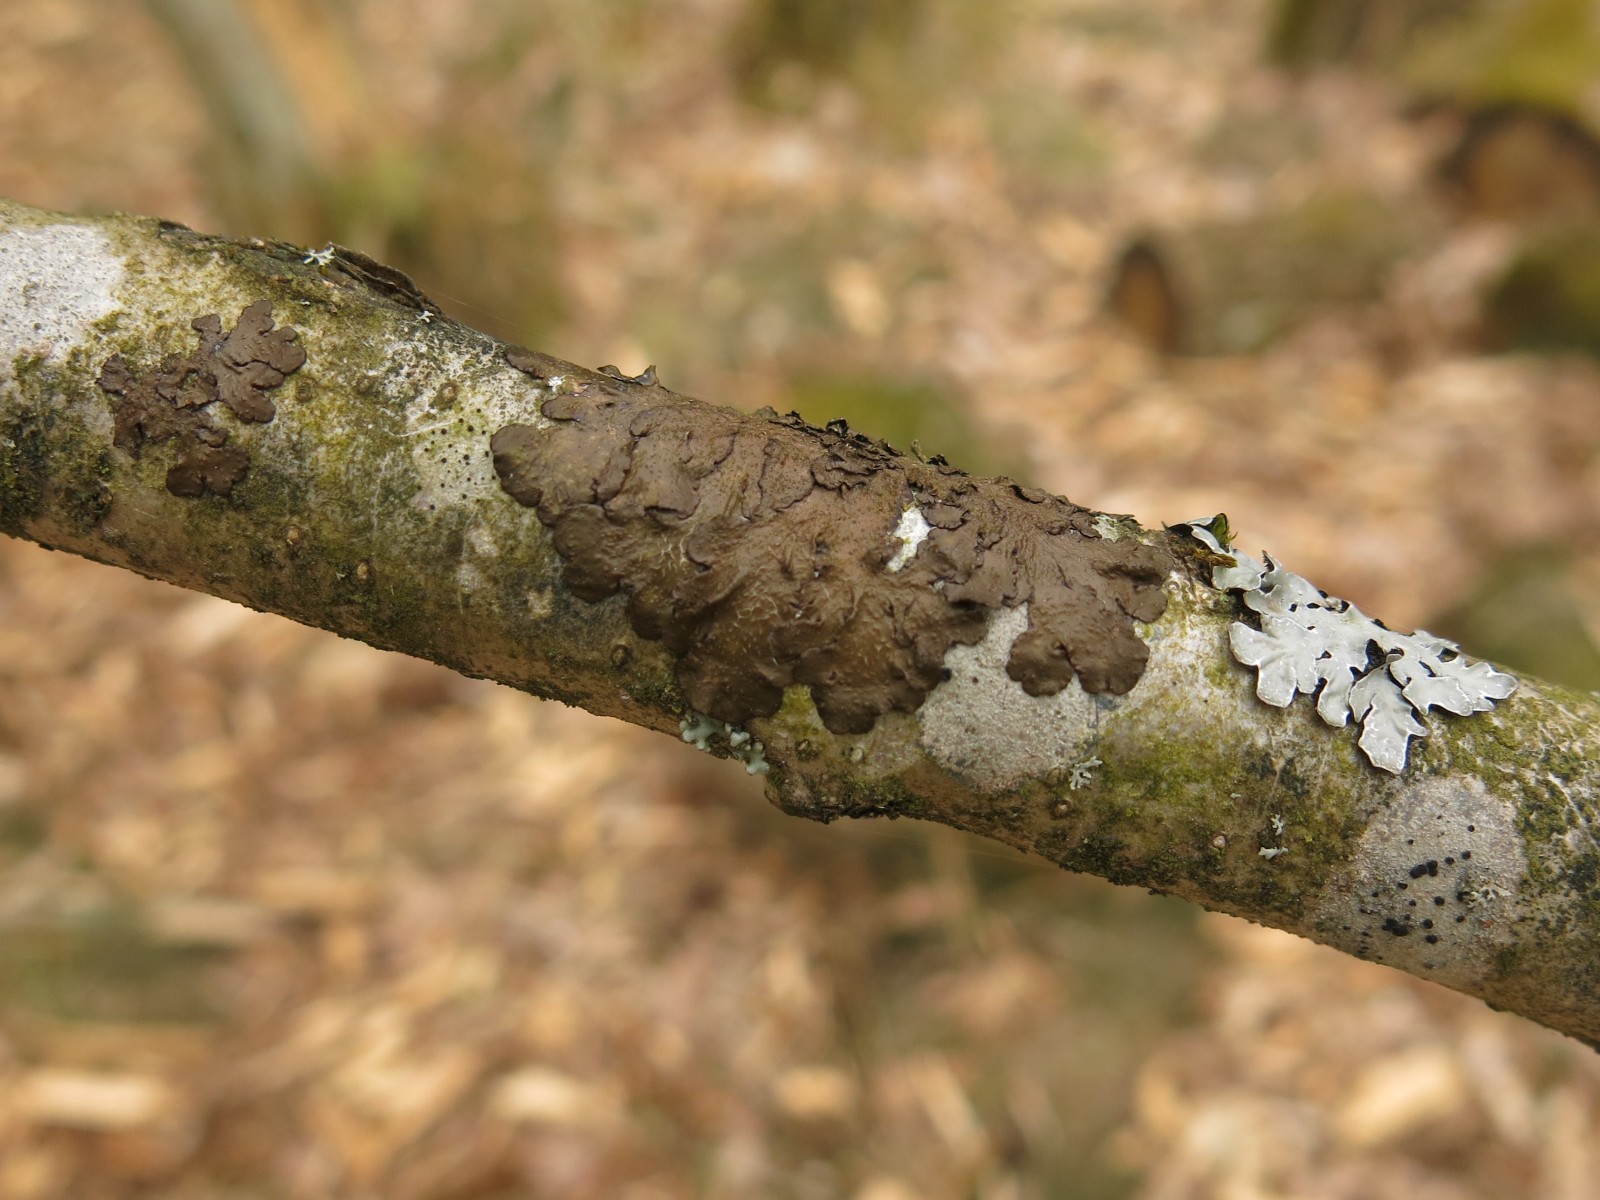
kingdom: Fungi
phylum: Ascomycota
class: Lecanoromycetes
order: Lecanorales
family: Parmeliaceae
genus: Melanelixia
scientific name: Melanelixia subaurifera
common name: guldpudret skållav
